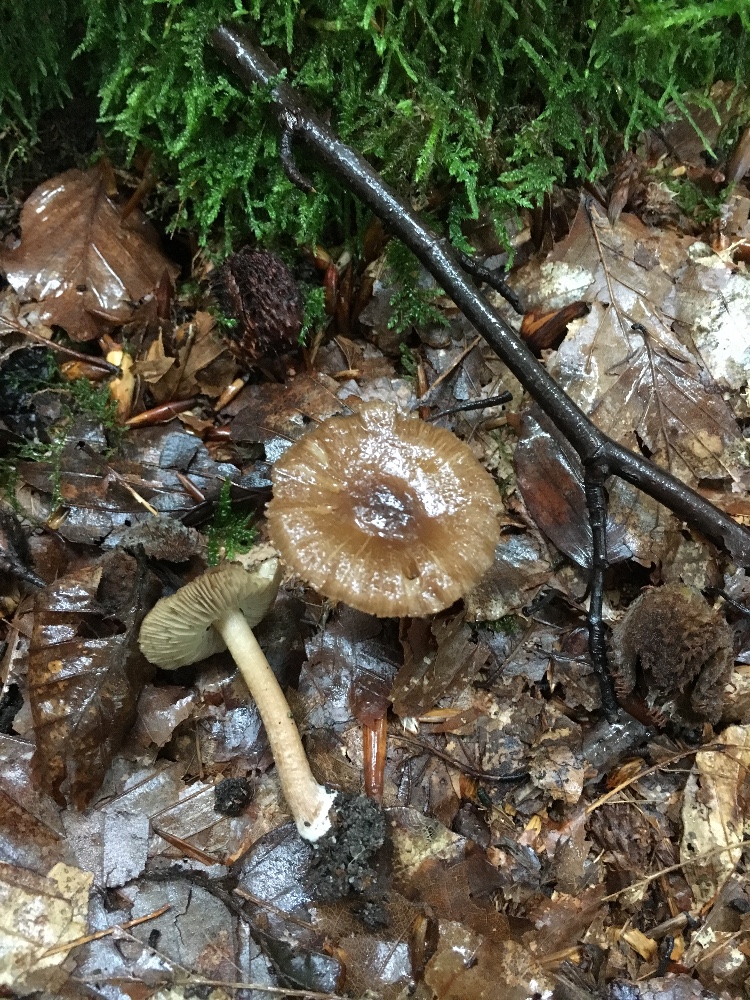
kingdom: Fungi
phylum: Basidiomycota
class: Agaricomycetes
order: Agaricales
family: Inocybaceae
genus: Inocybe
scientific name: Inocybe
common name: trævlhat
